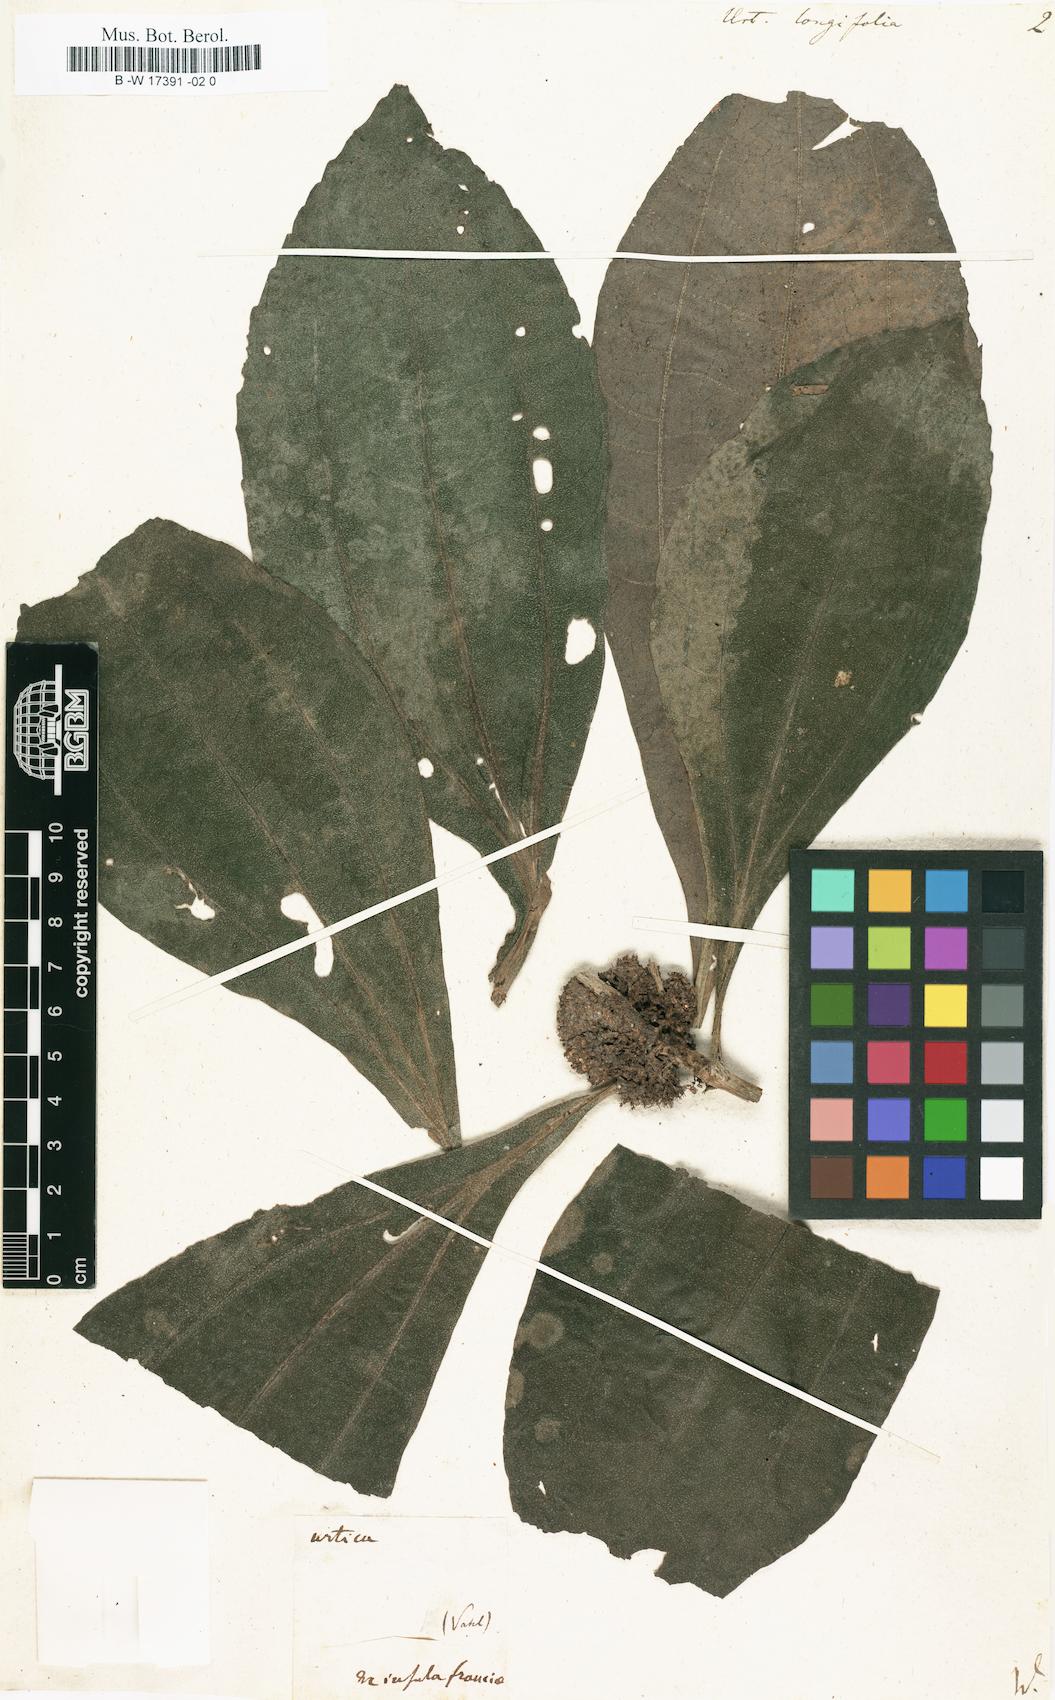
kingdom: Plantae
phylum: Tracheophyta
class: Magnoliopsida
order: Rosales
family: Urticaceae
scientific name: Urticaceae
